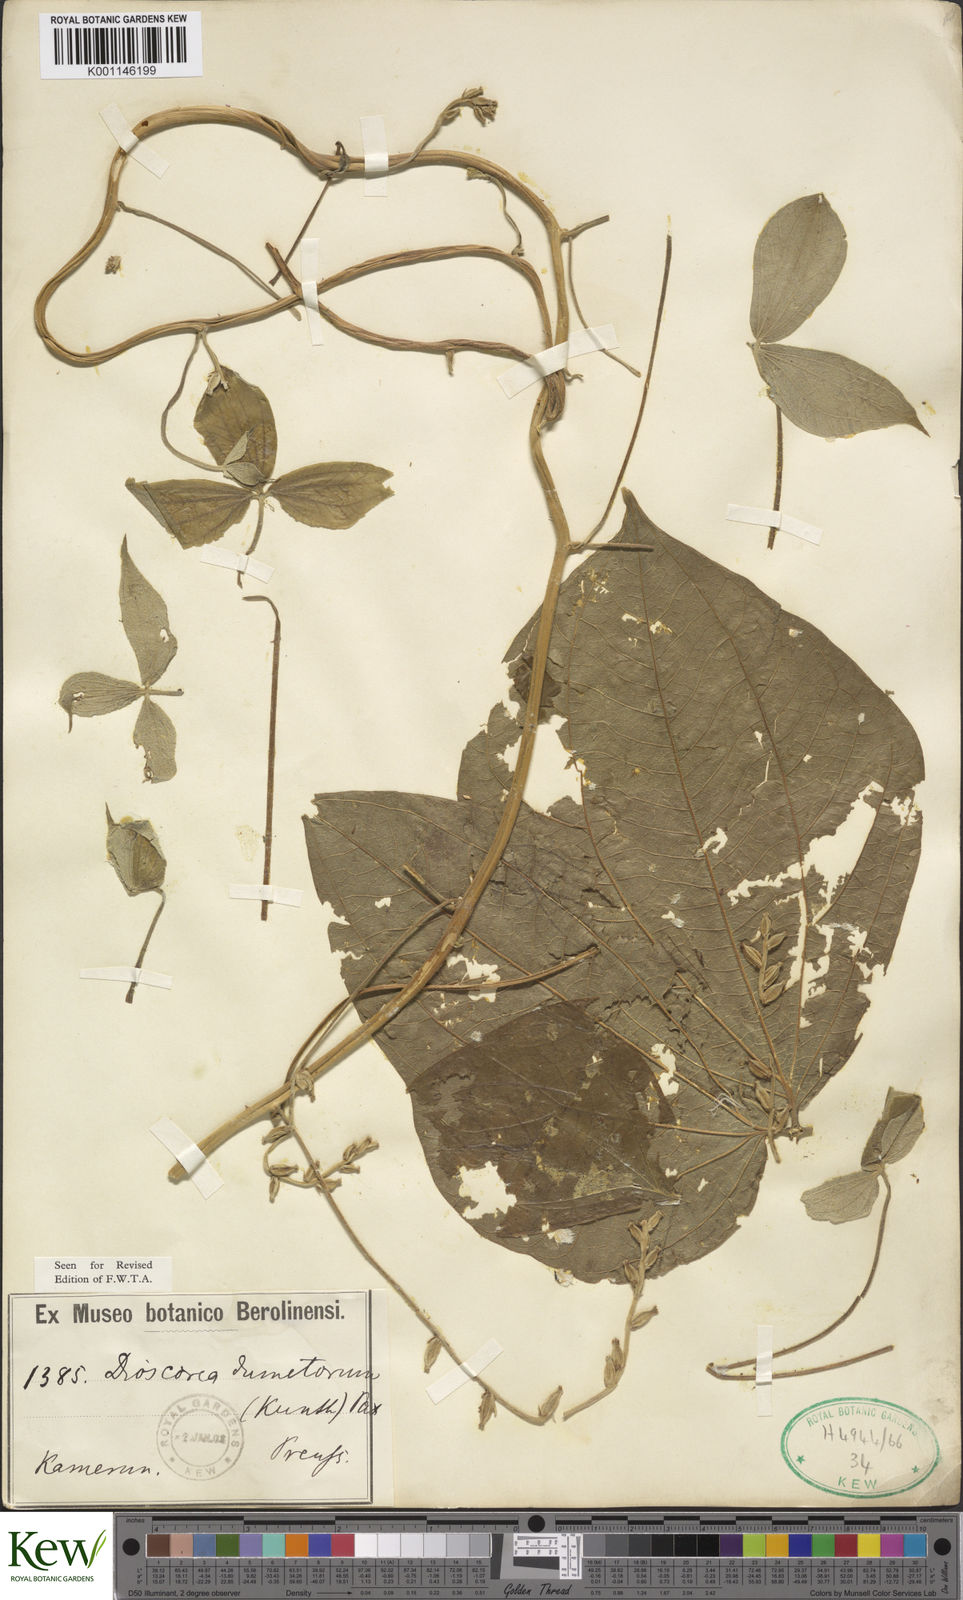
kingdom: Plantae
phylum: Tracheophyta
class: Liliopsida
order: Dioscoreales
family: Dioscoreaceae
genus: Dioscorea
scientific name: Dioscorea dumetorum
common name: African bitter yam
